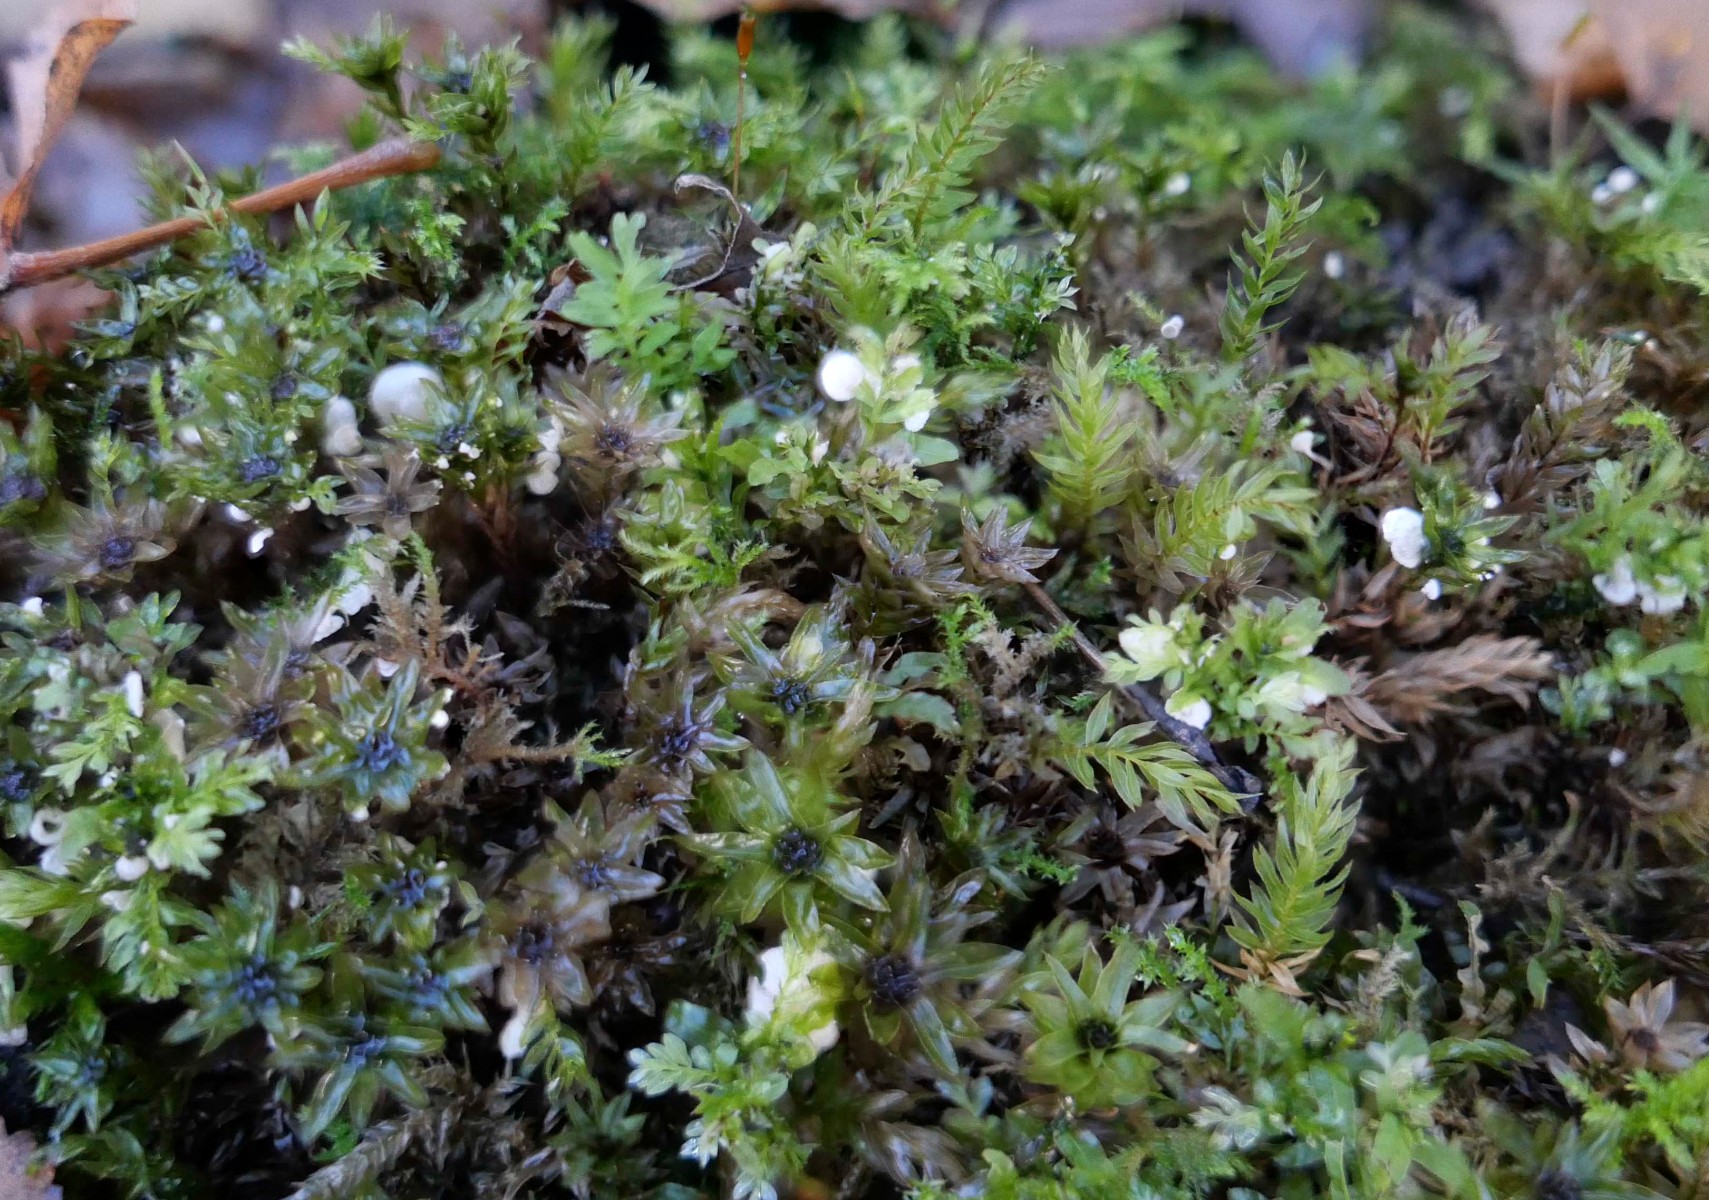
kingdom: Fungi
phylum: Basidiomycota
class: Agaricomycetes
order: Agaricales
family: Tricholomataceae
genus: Rimbachia
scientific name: Rimbachia arachnoidea
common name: Almindelig mosskål
